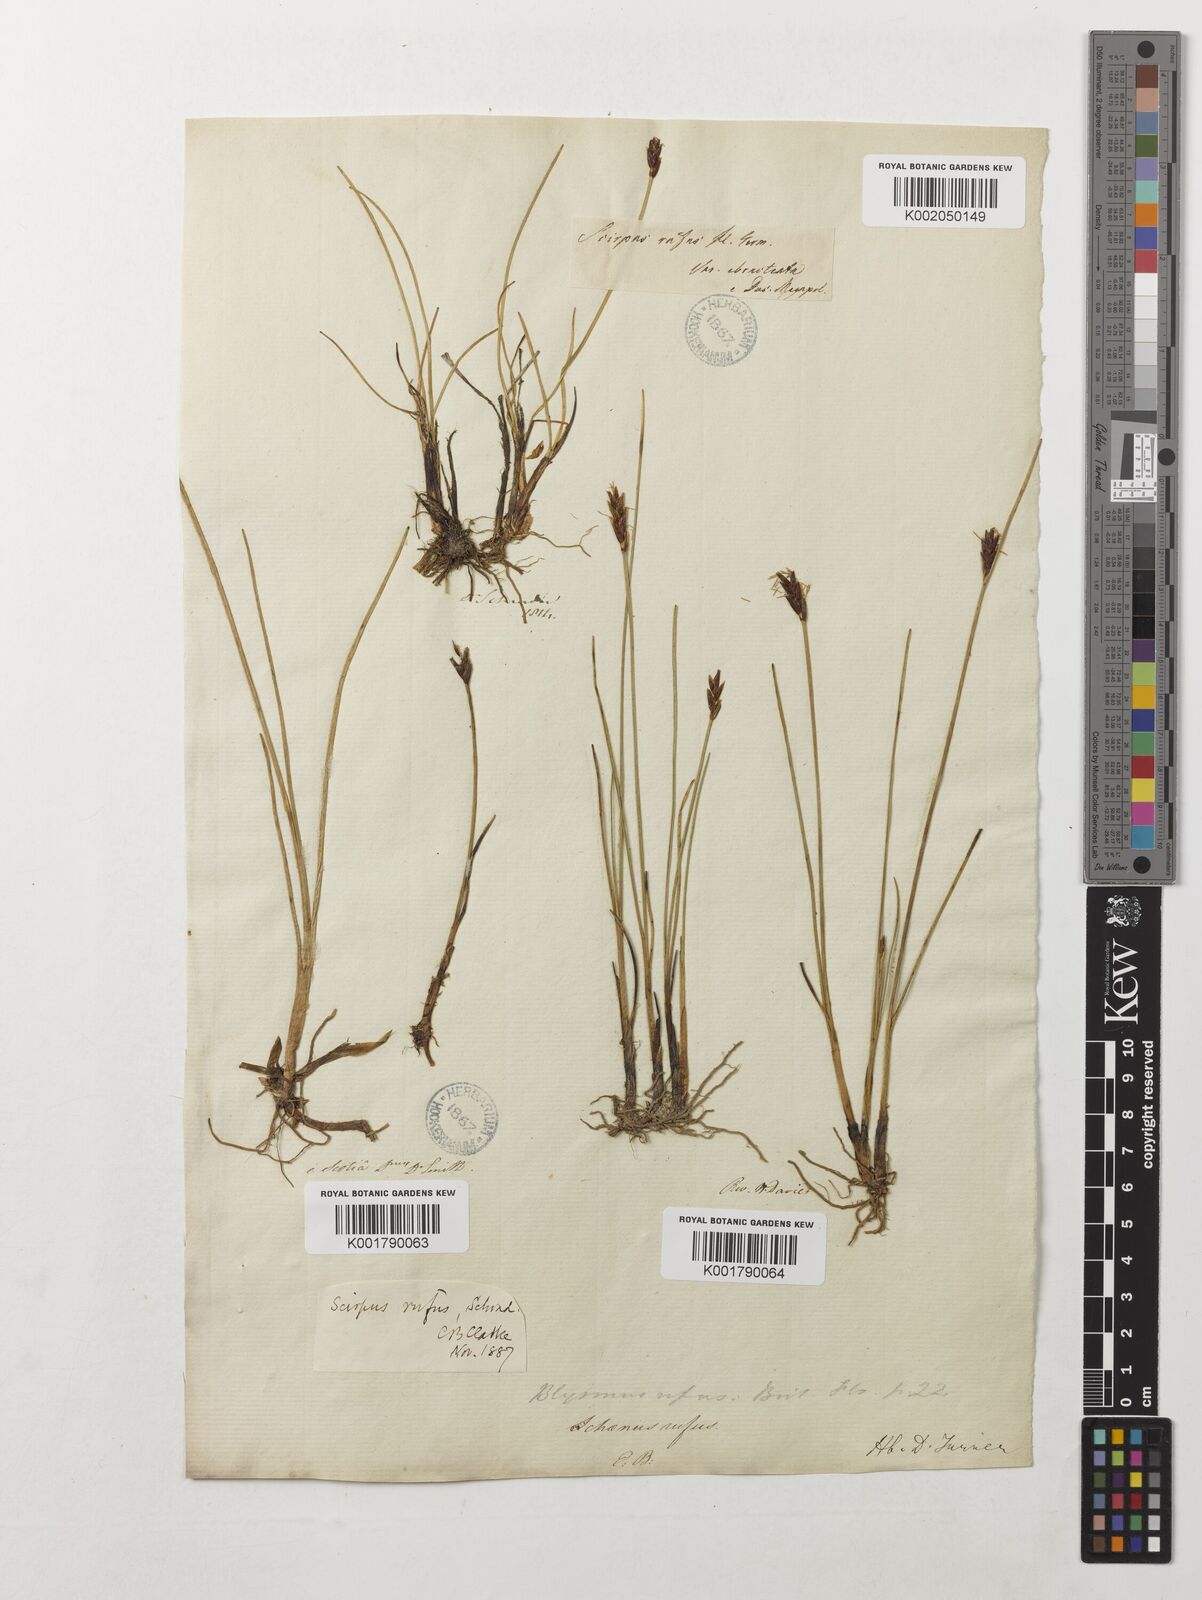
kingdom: Plantae
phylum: Tracheophyta
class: Liliopsida
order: Poales
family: Cyperaceae
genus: Blysmus
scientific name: Blysmus rufus
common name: Saltmarsh flat-sedge
